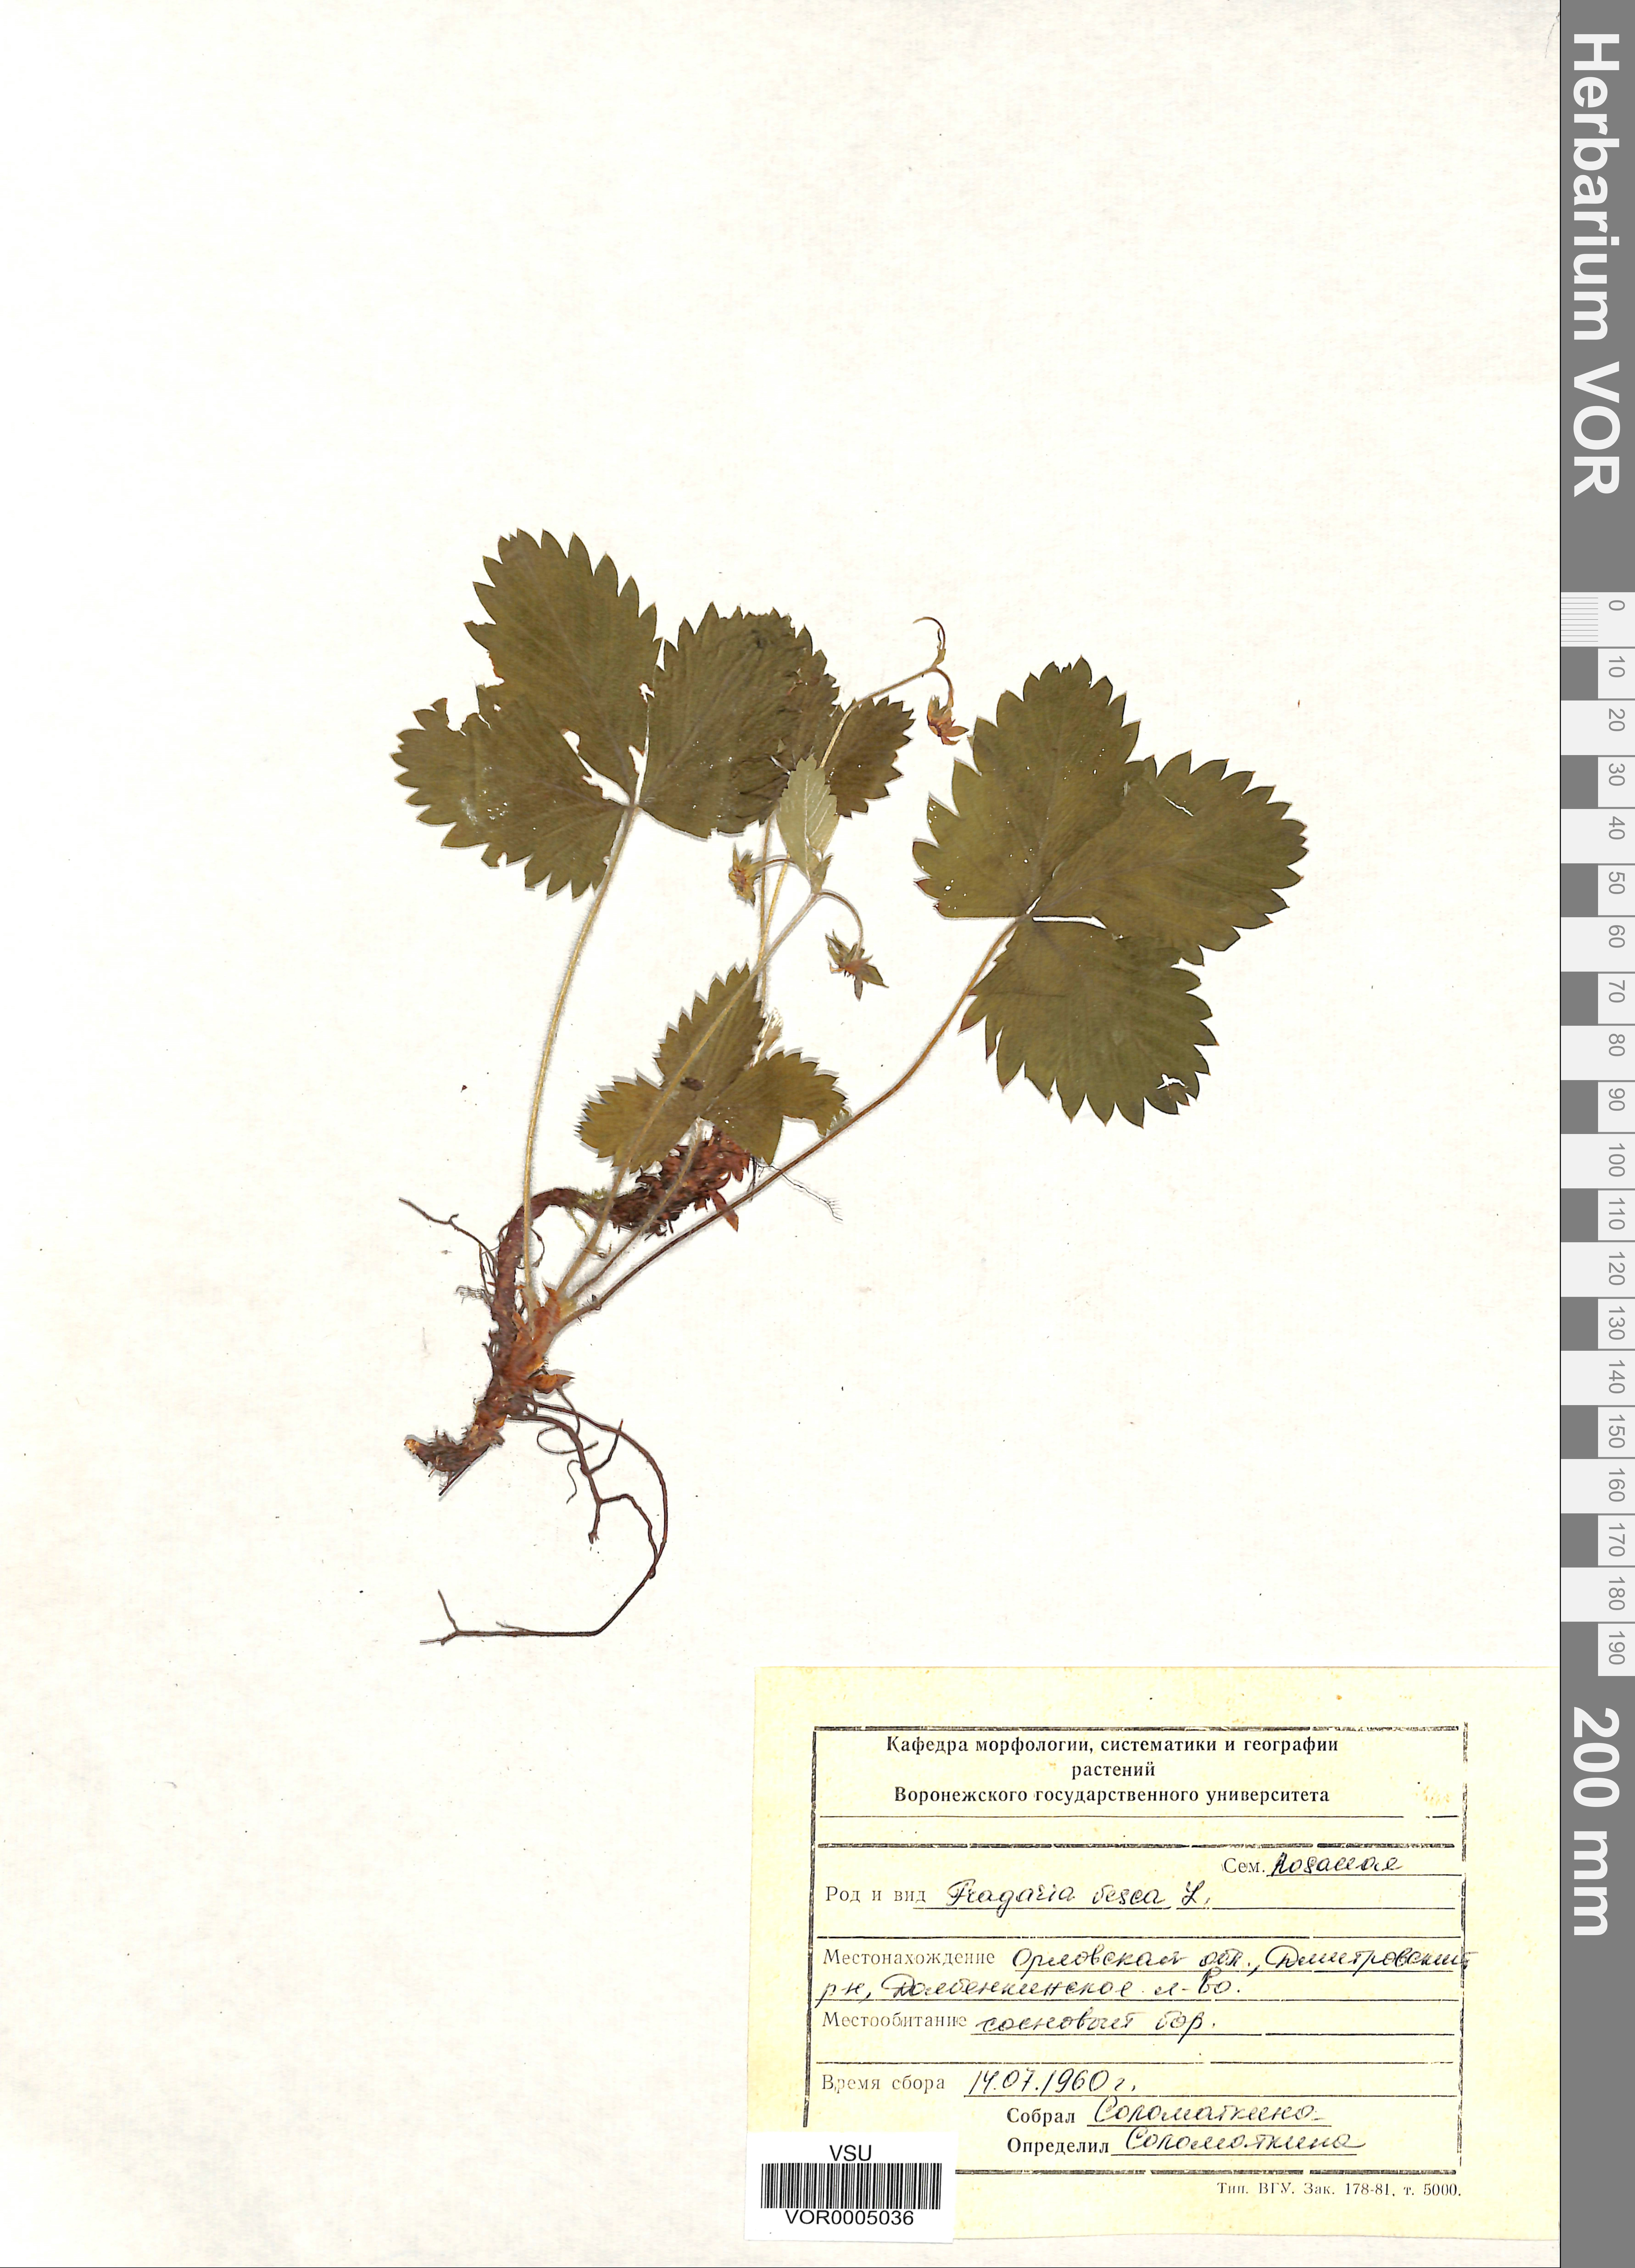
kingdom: Plantae
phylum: Tracheophyta
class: Magnoliopsida
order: Rosales
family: Rosaceae
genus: Fragaria
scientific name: Fragaria vesca
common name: Wild strawberry
